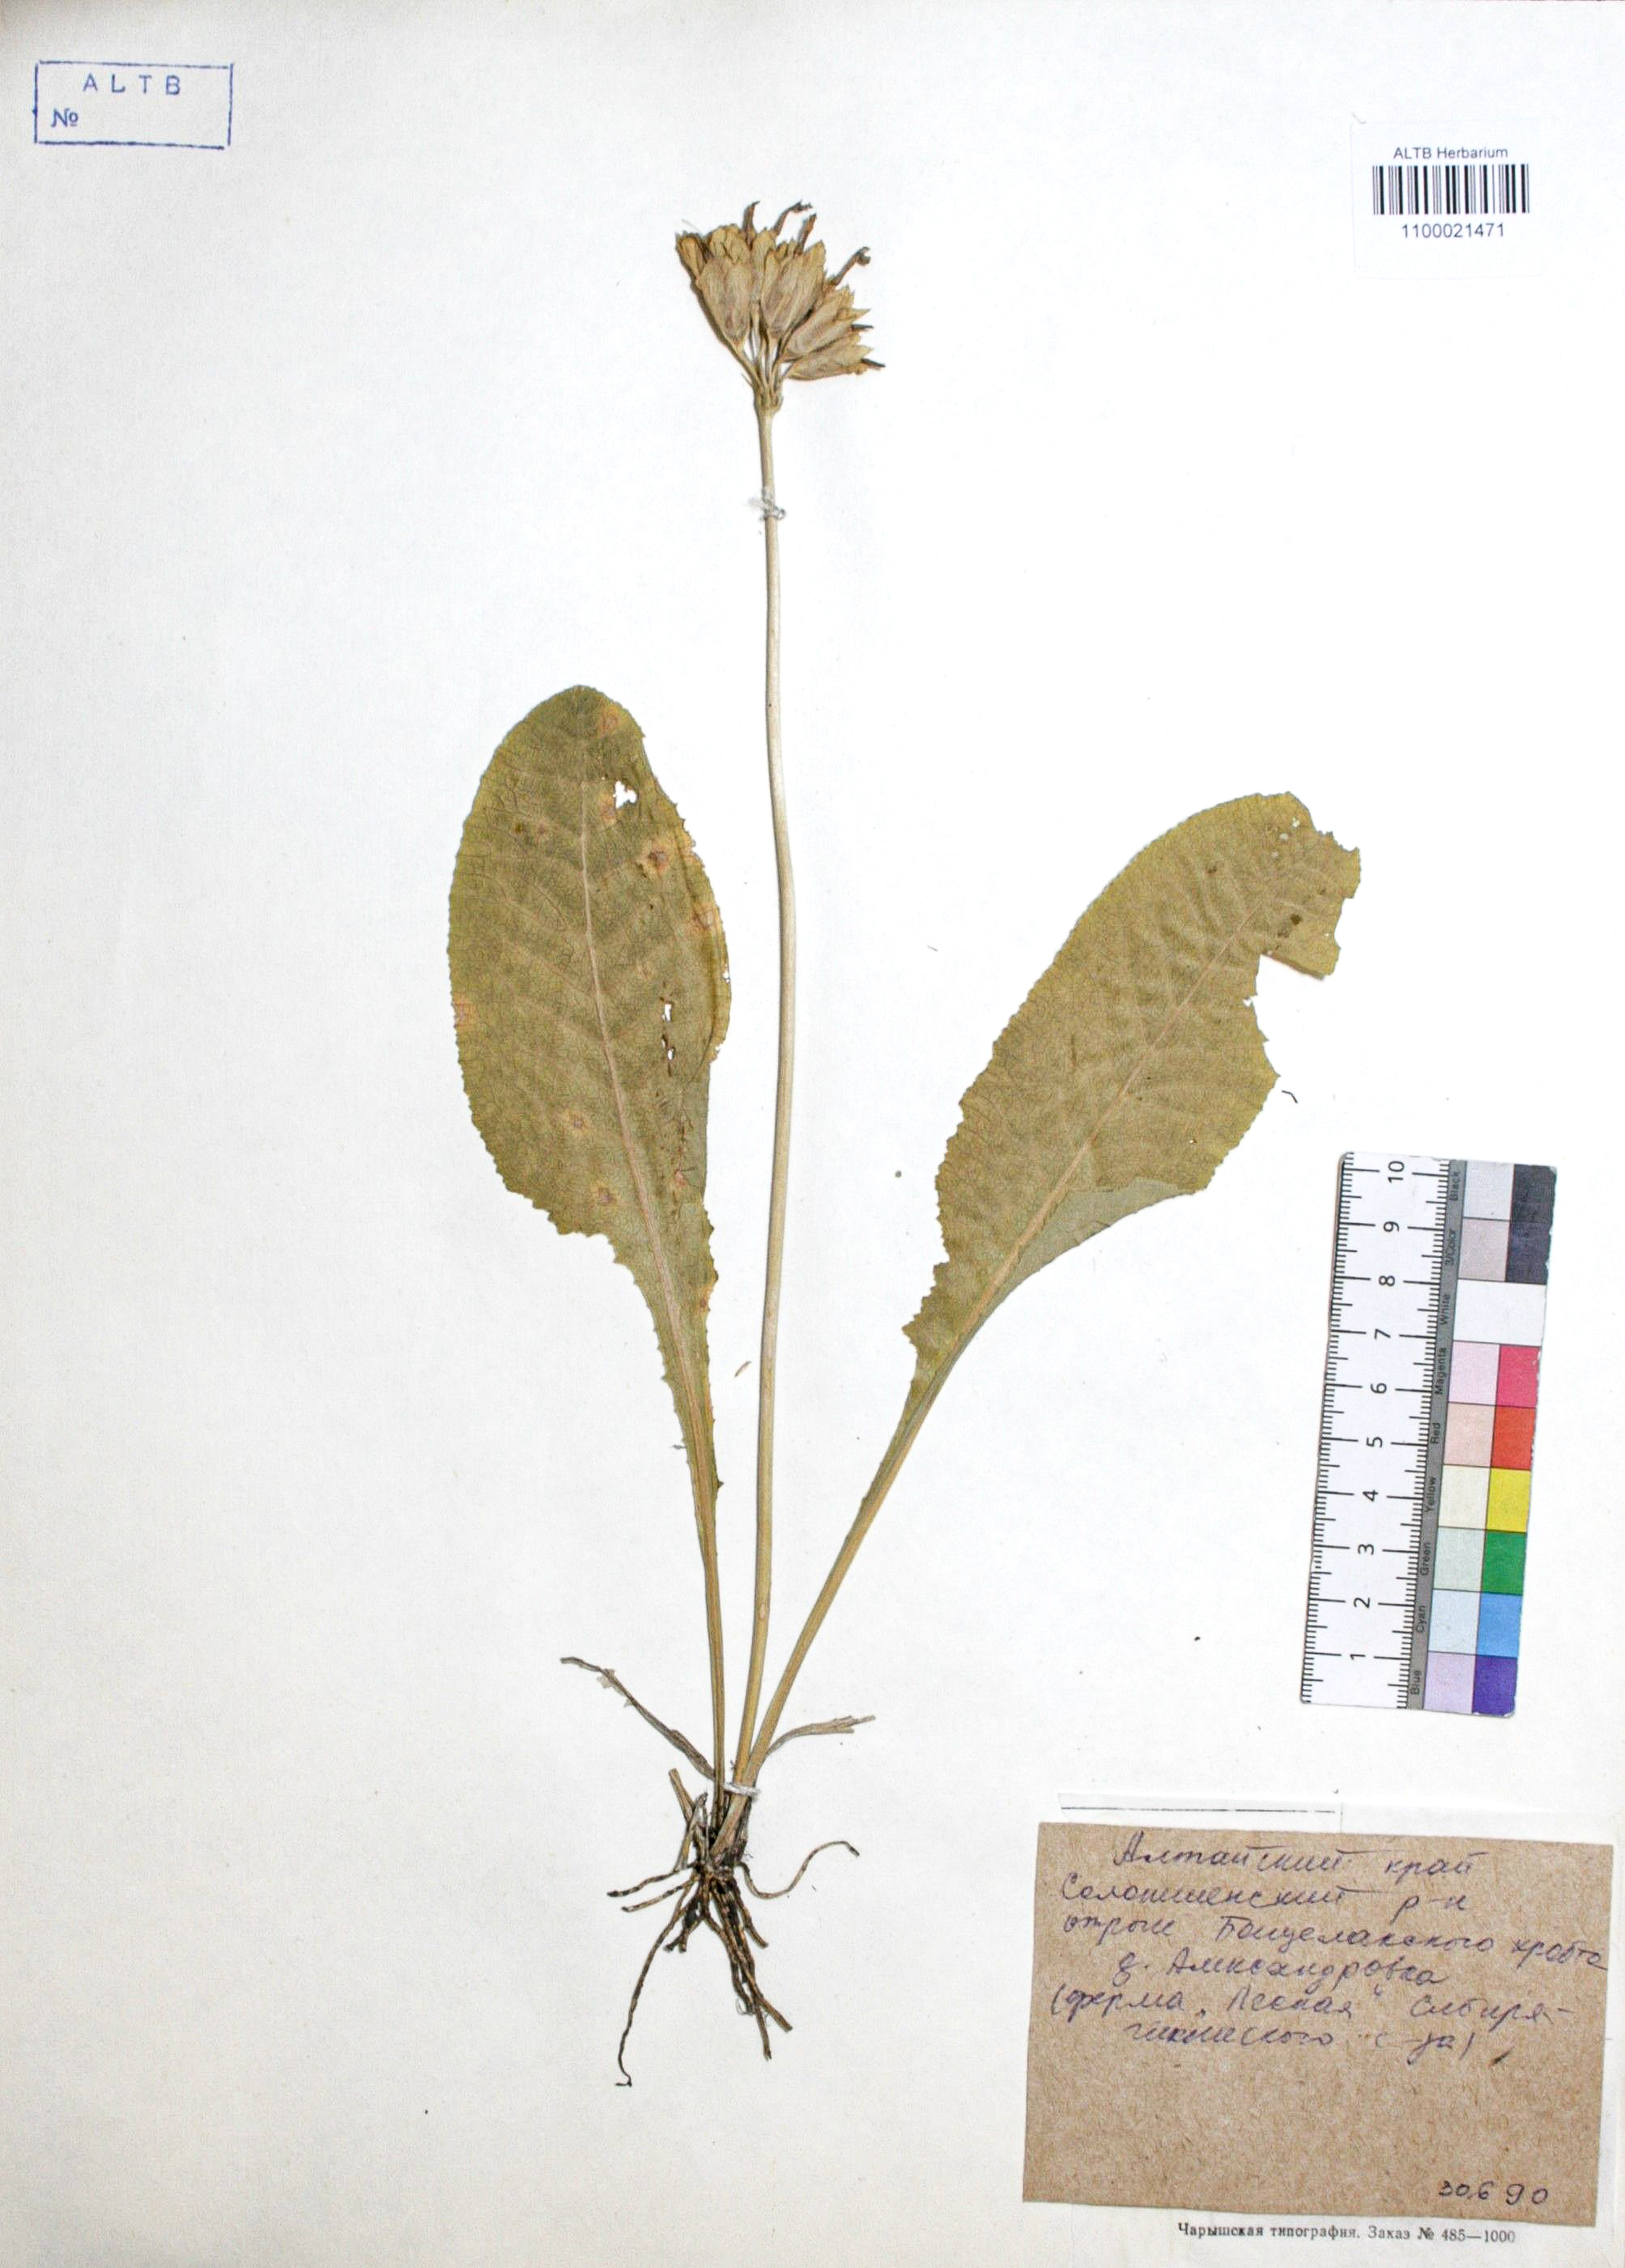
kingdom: Plantae
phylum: Tracheophyta
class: Magnoliopsida
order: Ericales
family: Primulaceae
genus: Primula
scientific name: Primula veris
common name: Cowslip
